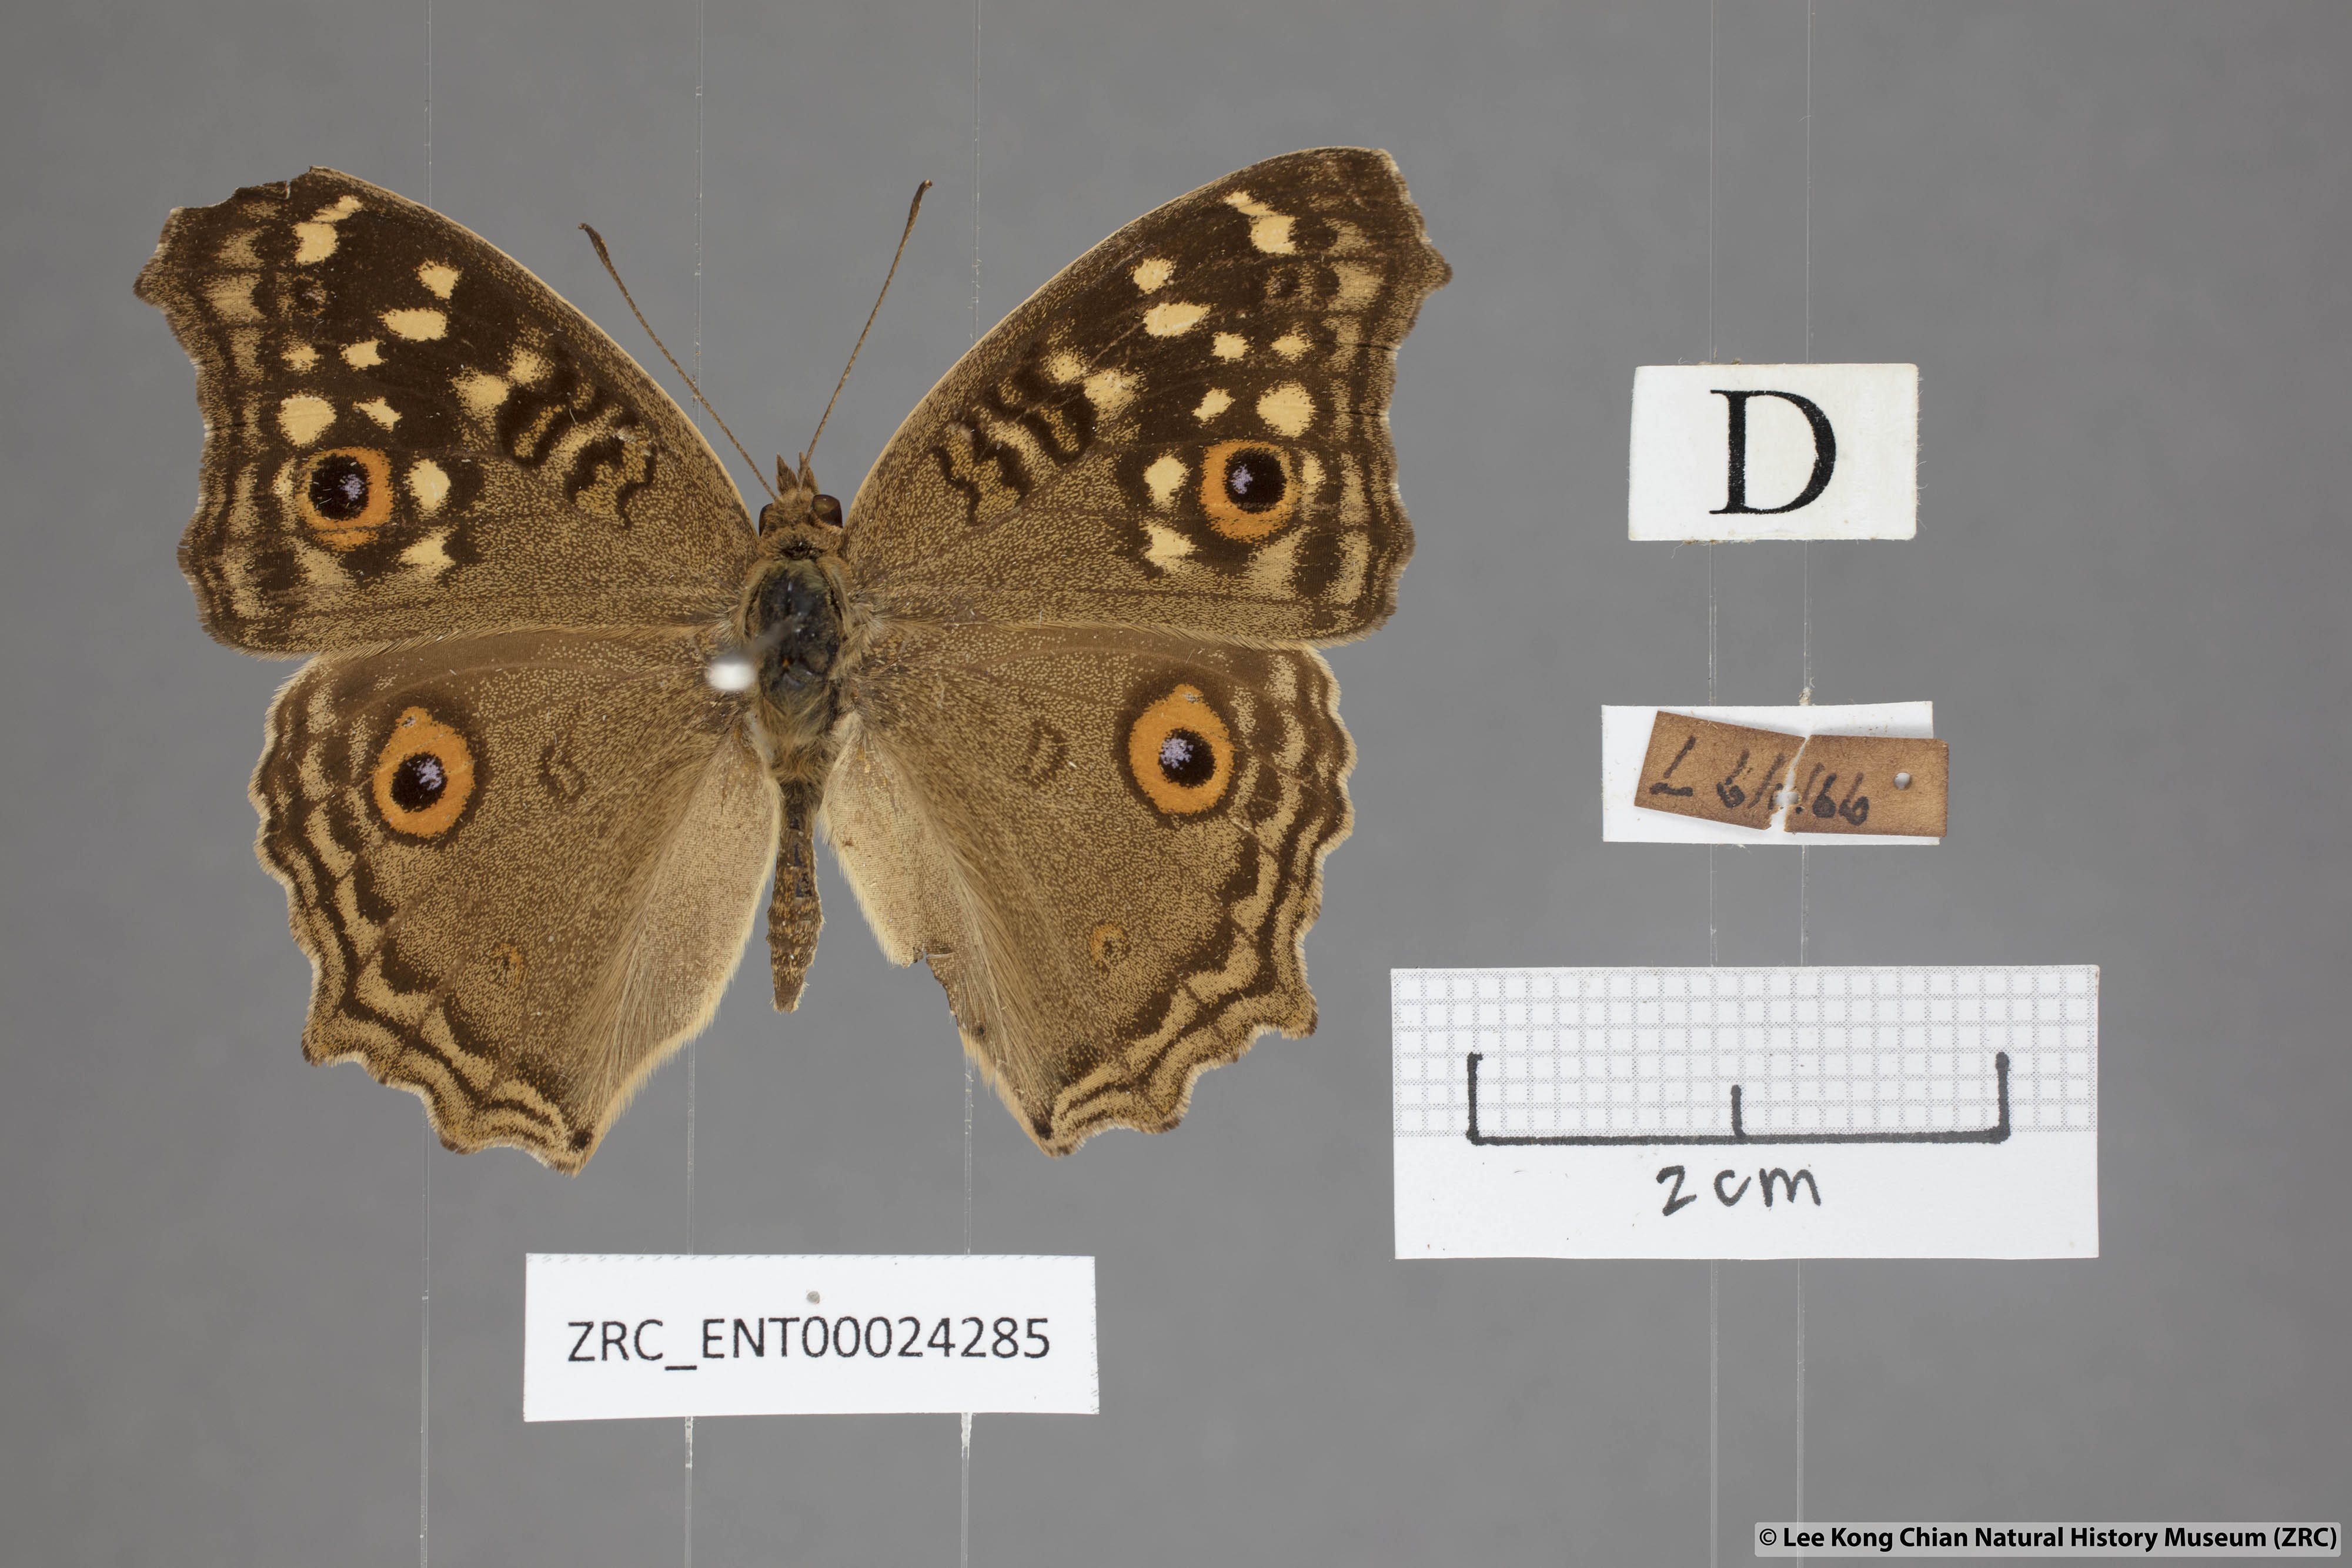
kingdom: Animalia
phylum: Arthropoda
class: Insecta
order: Lepidoptera
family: Nymphalidae
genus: Junonia
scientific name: Junonia lemonias
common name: Lemon pansy
